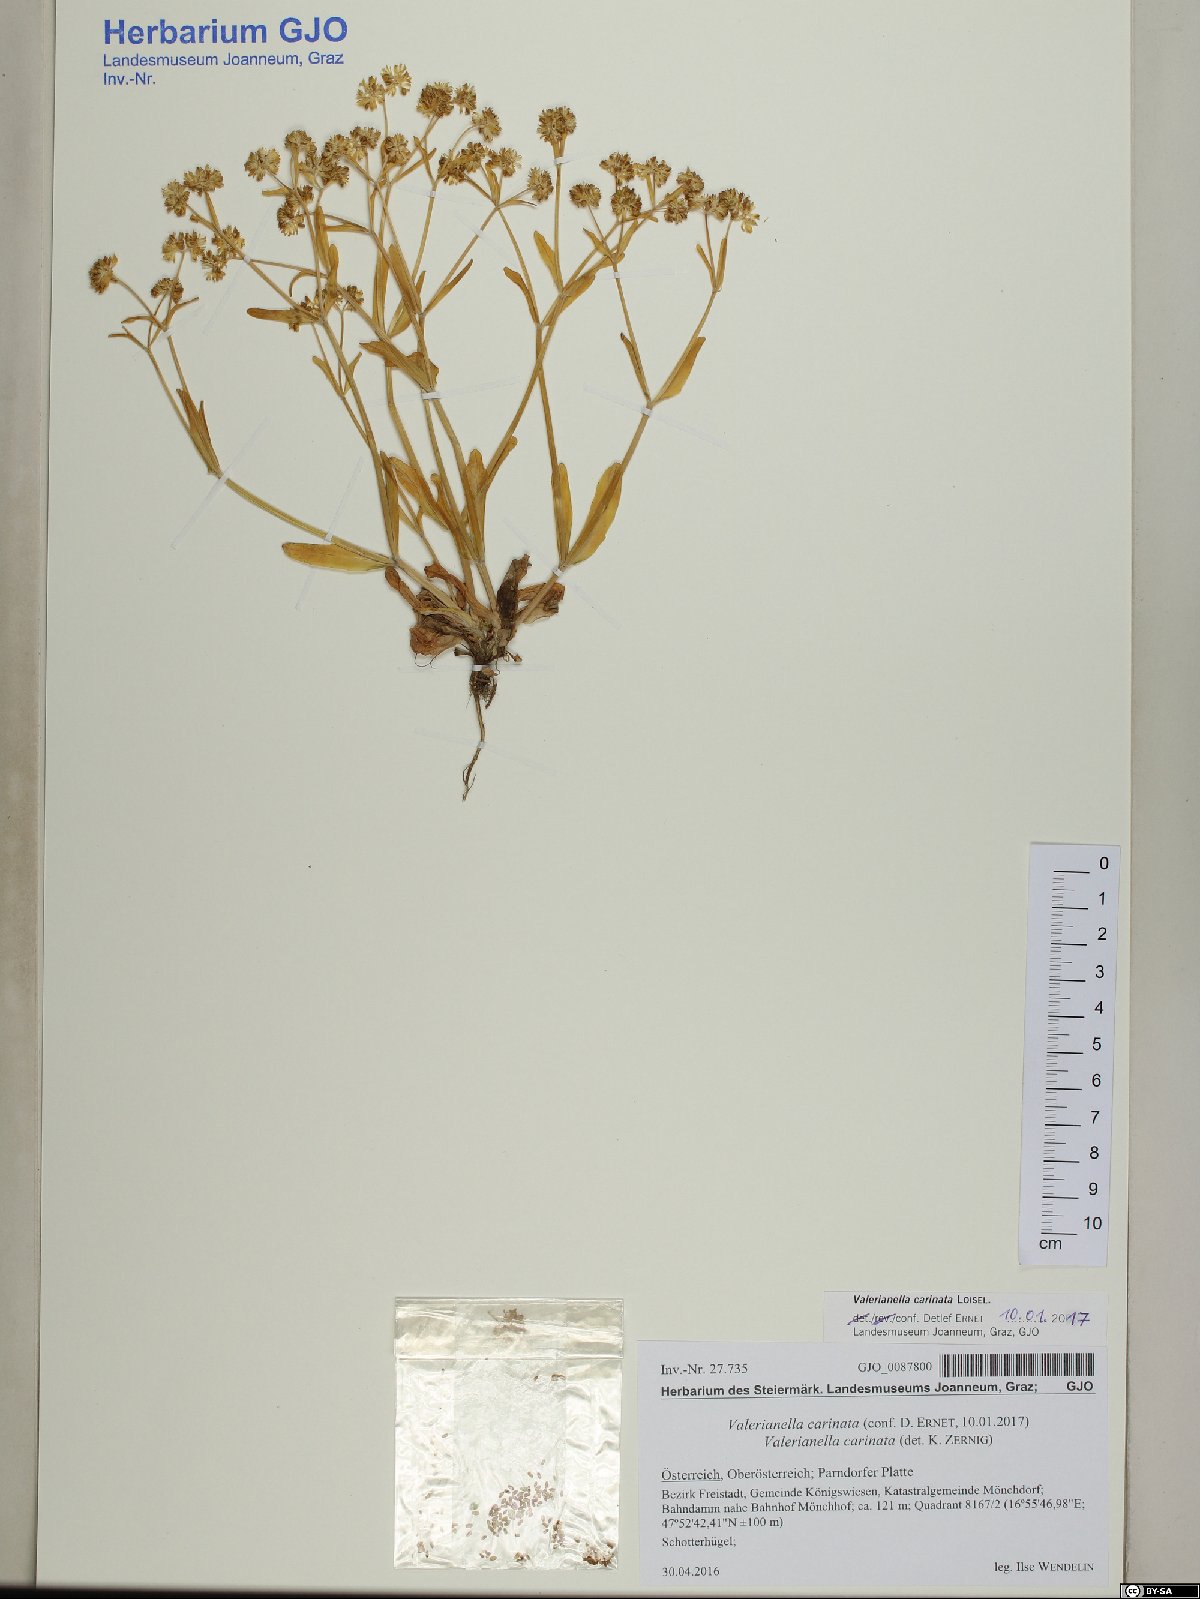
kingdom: Plantae
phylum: Tracheophyta
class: Magnoliopsida
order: Dipsacales
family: Caprifoliaceae
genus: Valerianella
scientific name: Valerianella carinata
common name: Keeled-fruited cornsalad
